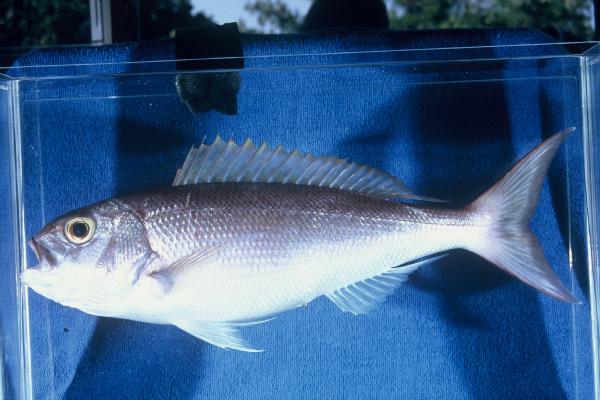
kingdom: Animalia
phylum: Chordata
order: Perciformes
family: Lutjanidae
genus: Pristipomoides
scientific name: Pristipomoides filamentosus
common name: Bluespot jobfish
